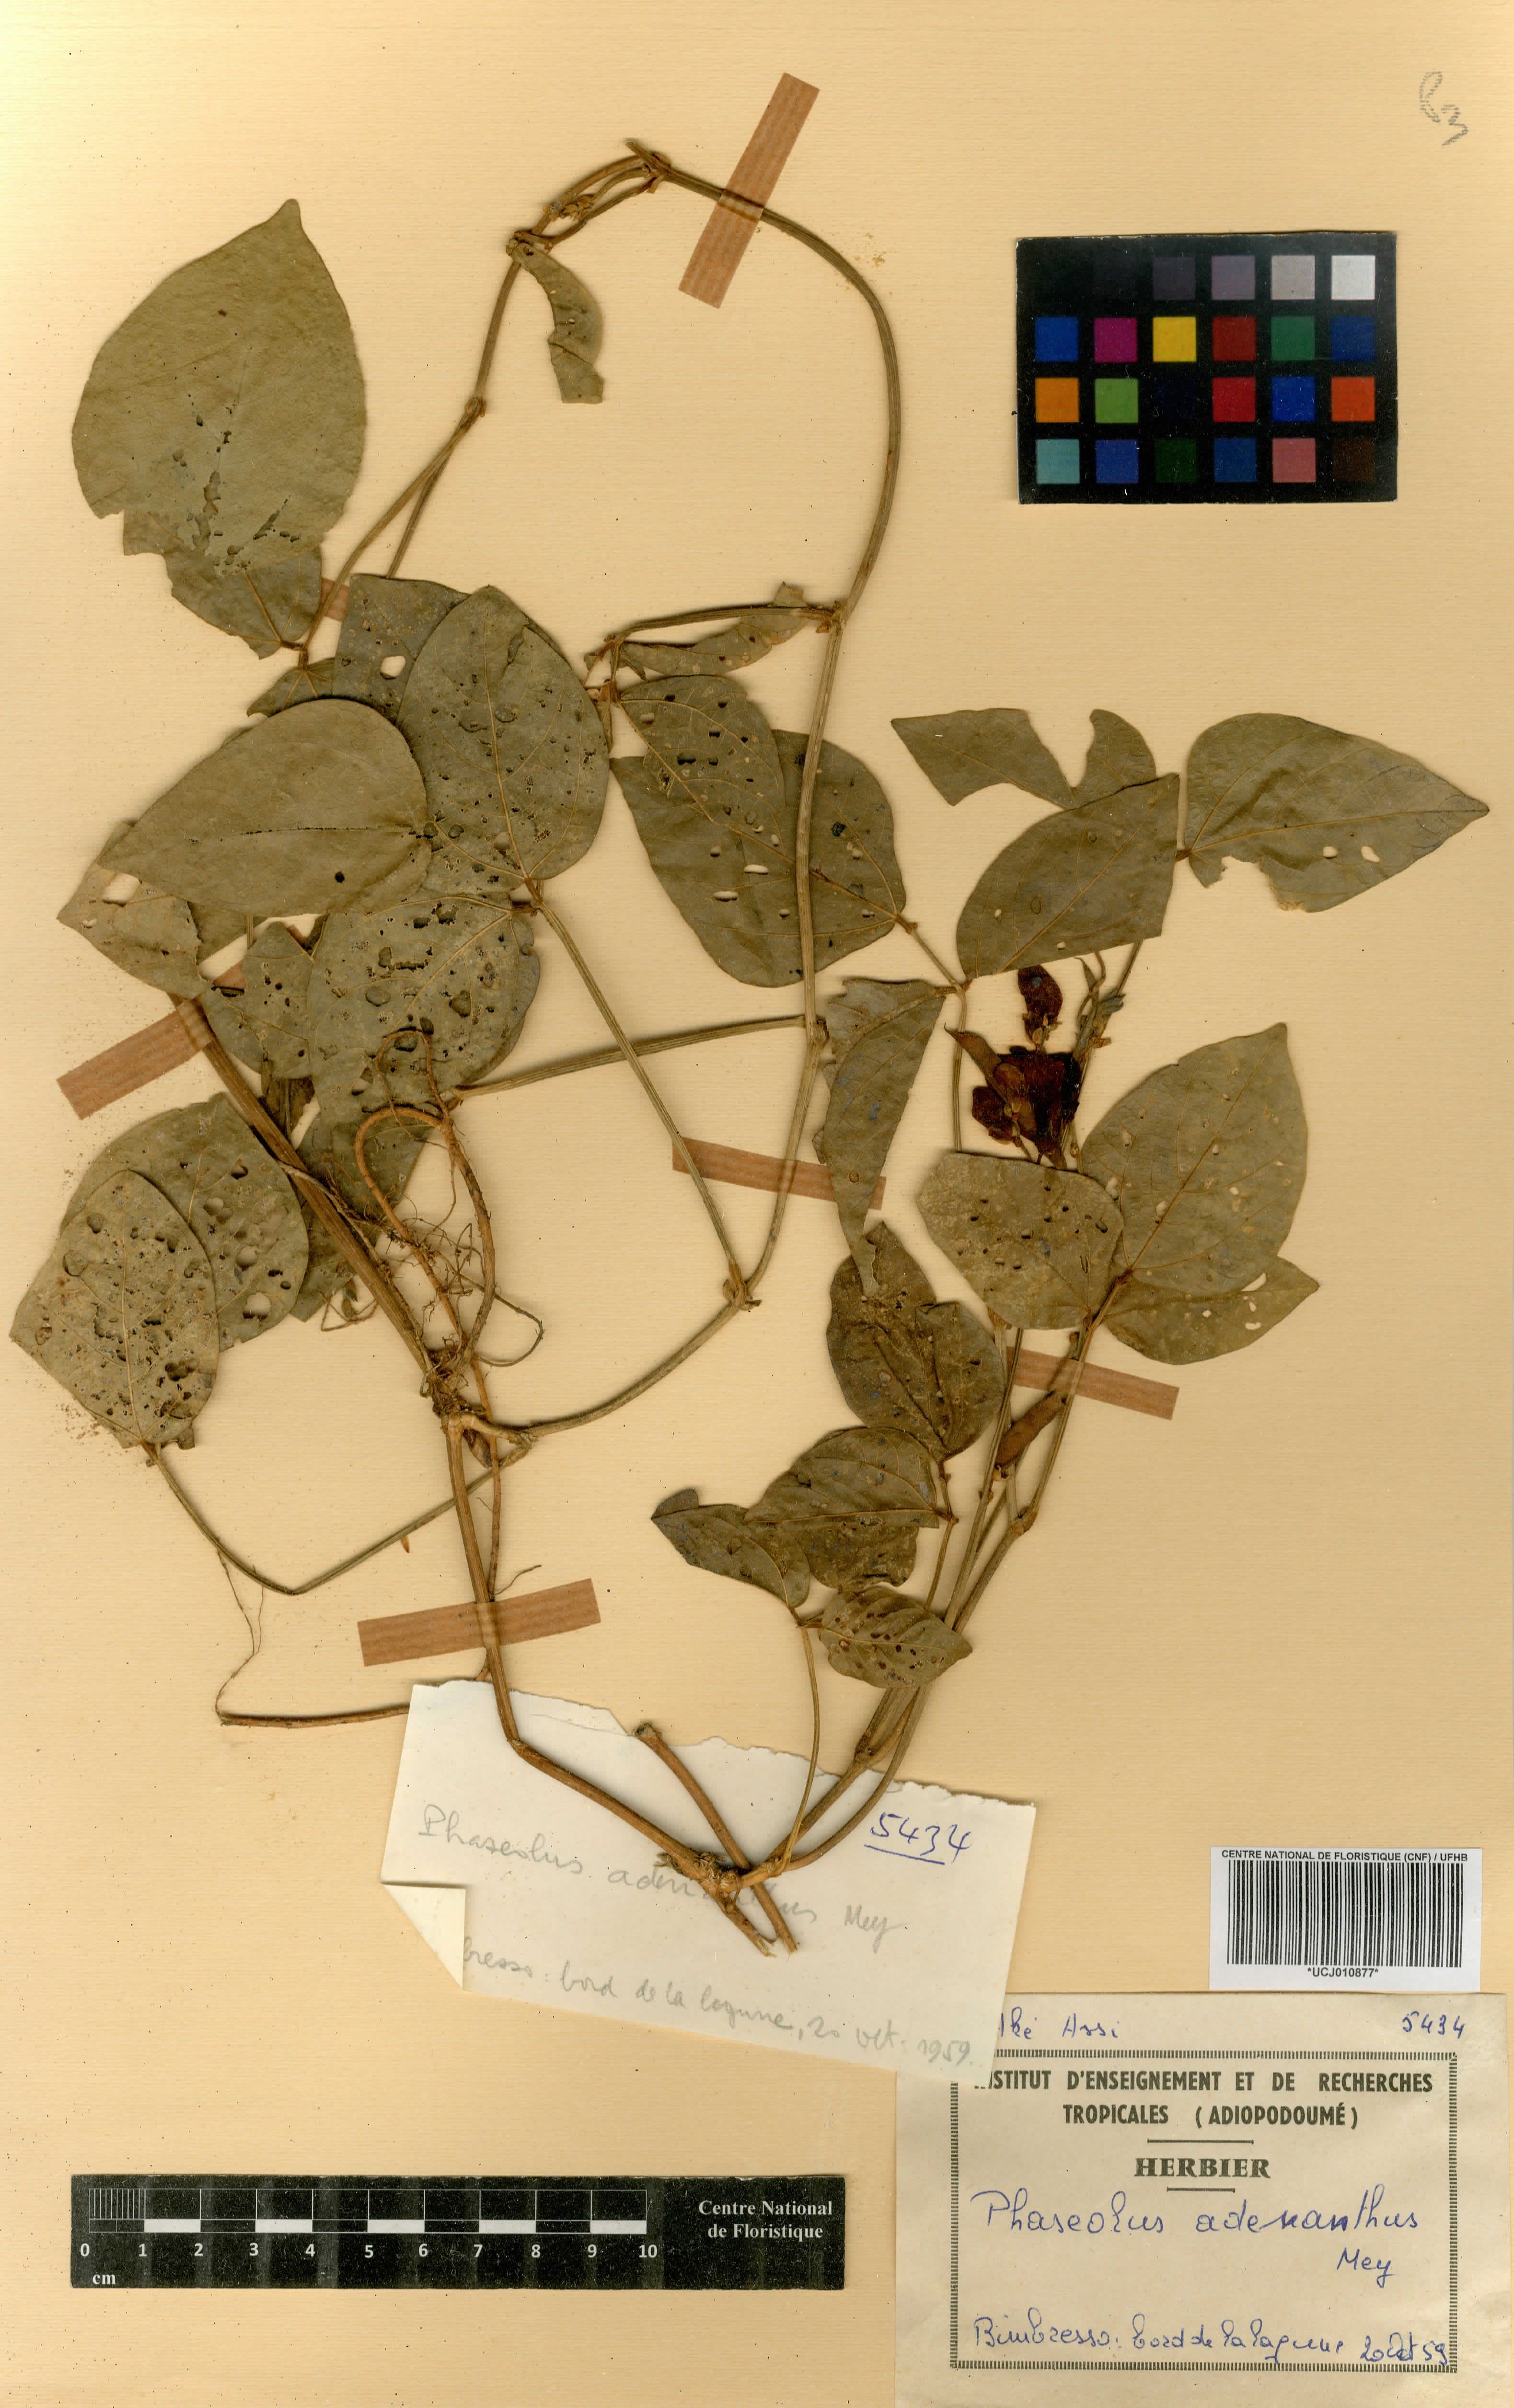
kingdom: Plantae
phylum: Tracheophyta
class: Magnoliopsida
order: Fabales
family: Fabaceae
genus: Leptospron
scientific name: Leptospron adenanthum
